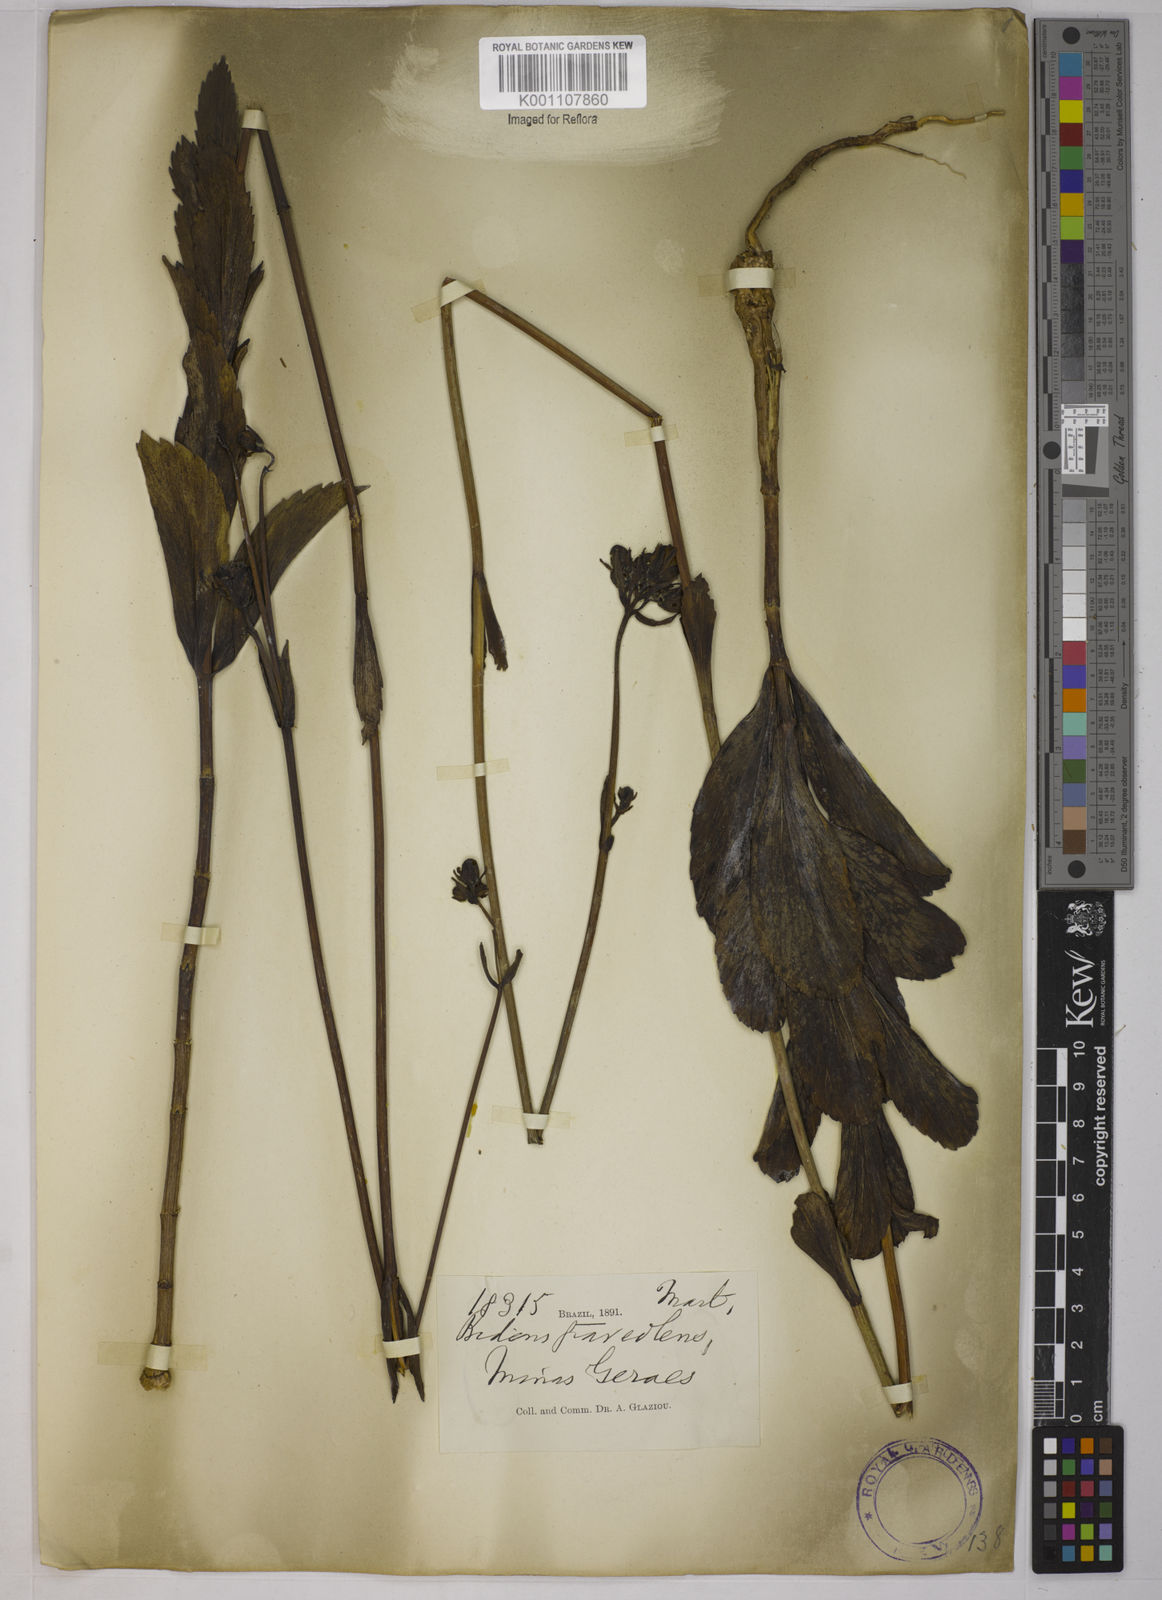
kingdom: Plantae
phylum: Tracheophyta
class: Magnoliopsida
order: Asterales
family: Asteraceae
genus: Bidens
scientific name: Bidens
